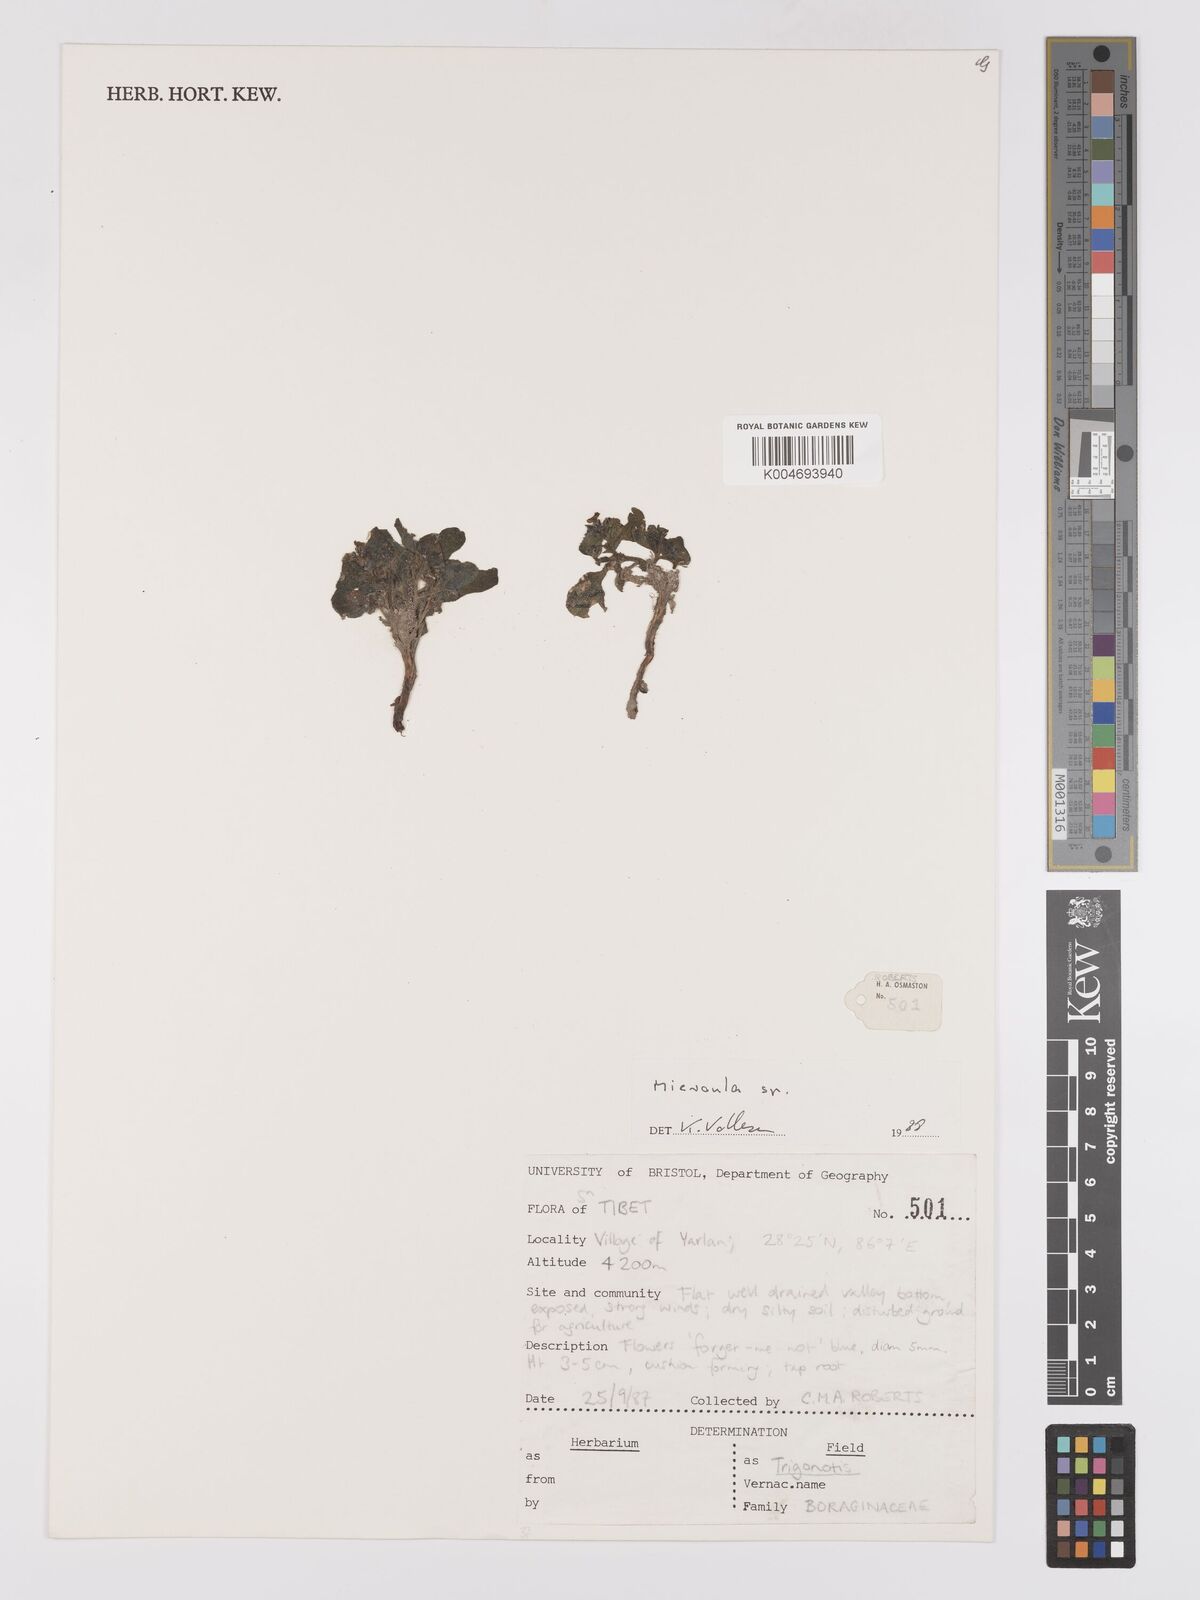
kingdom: Plantae
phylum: Tracheophyta
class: Magnoliopsida
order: Boraginales
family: Boraginaceae
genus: Microula
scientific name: Microula
